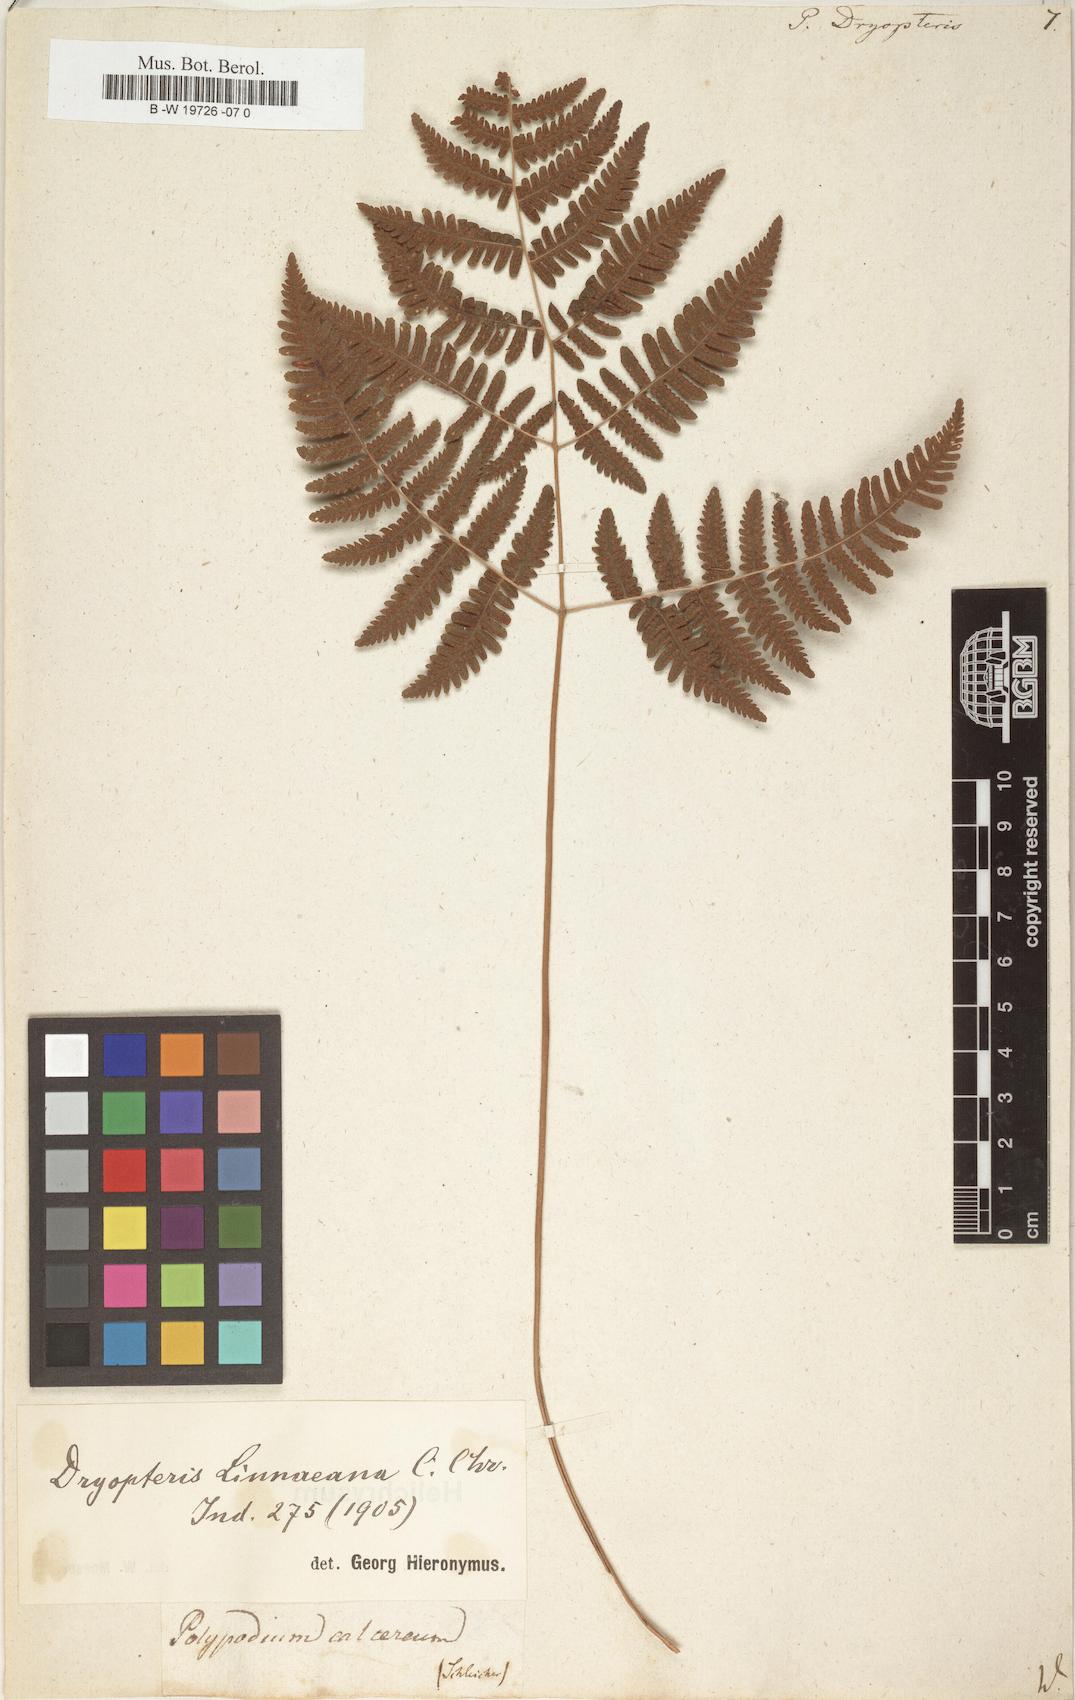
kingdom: Plantae
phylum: Tracheophyta
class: Polypodiopsida
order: Polypodiales
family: Cystopteridaceae
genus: Gymnocarpium
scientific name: Gymnocarpium dryopteris
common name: Oak fern
